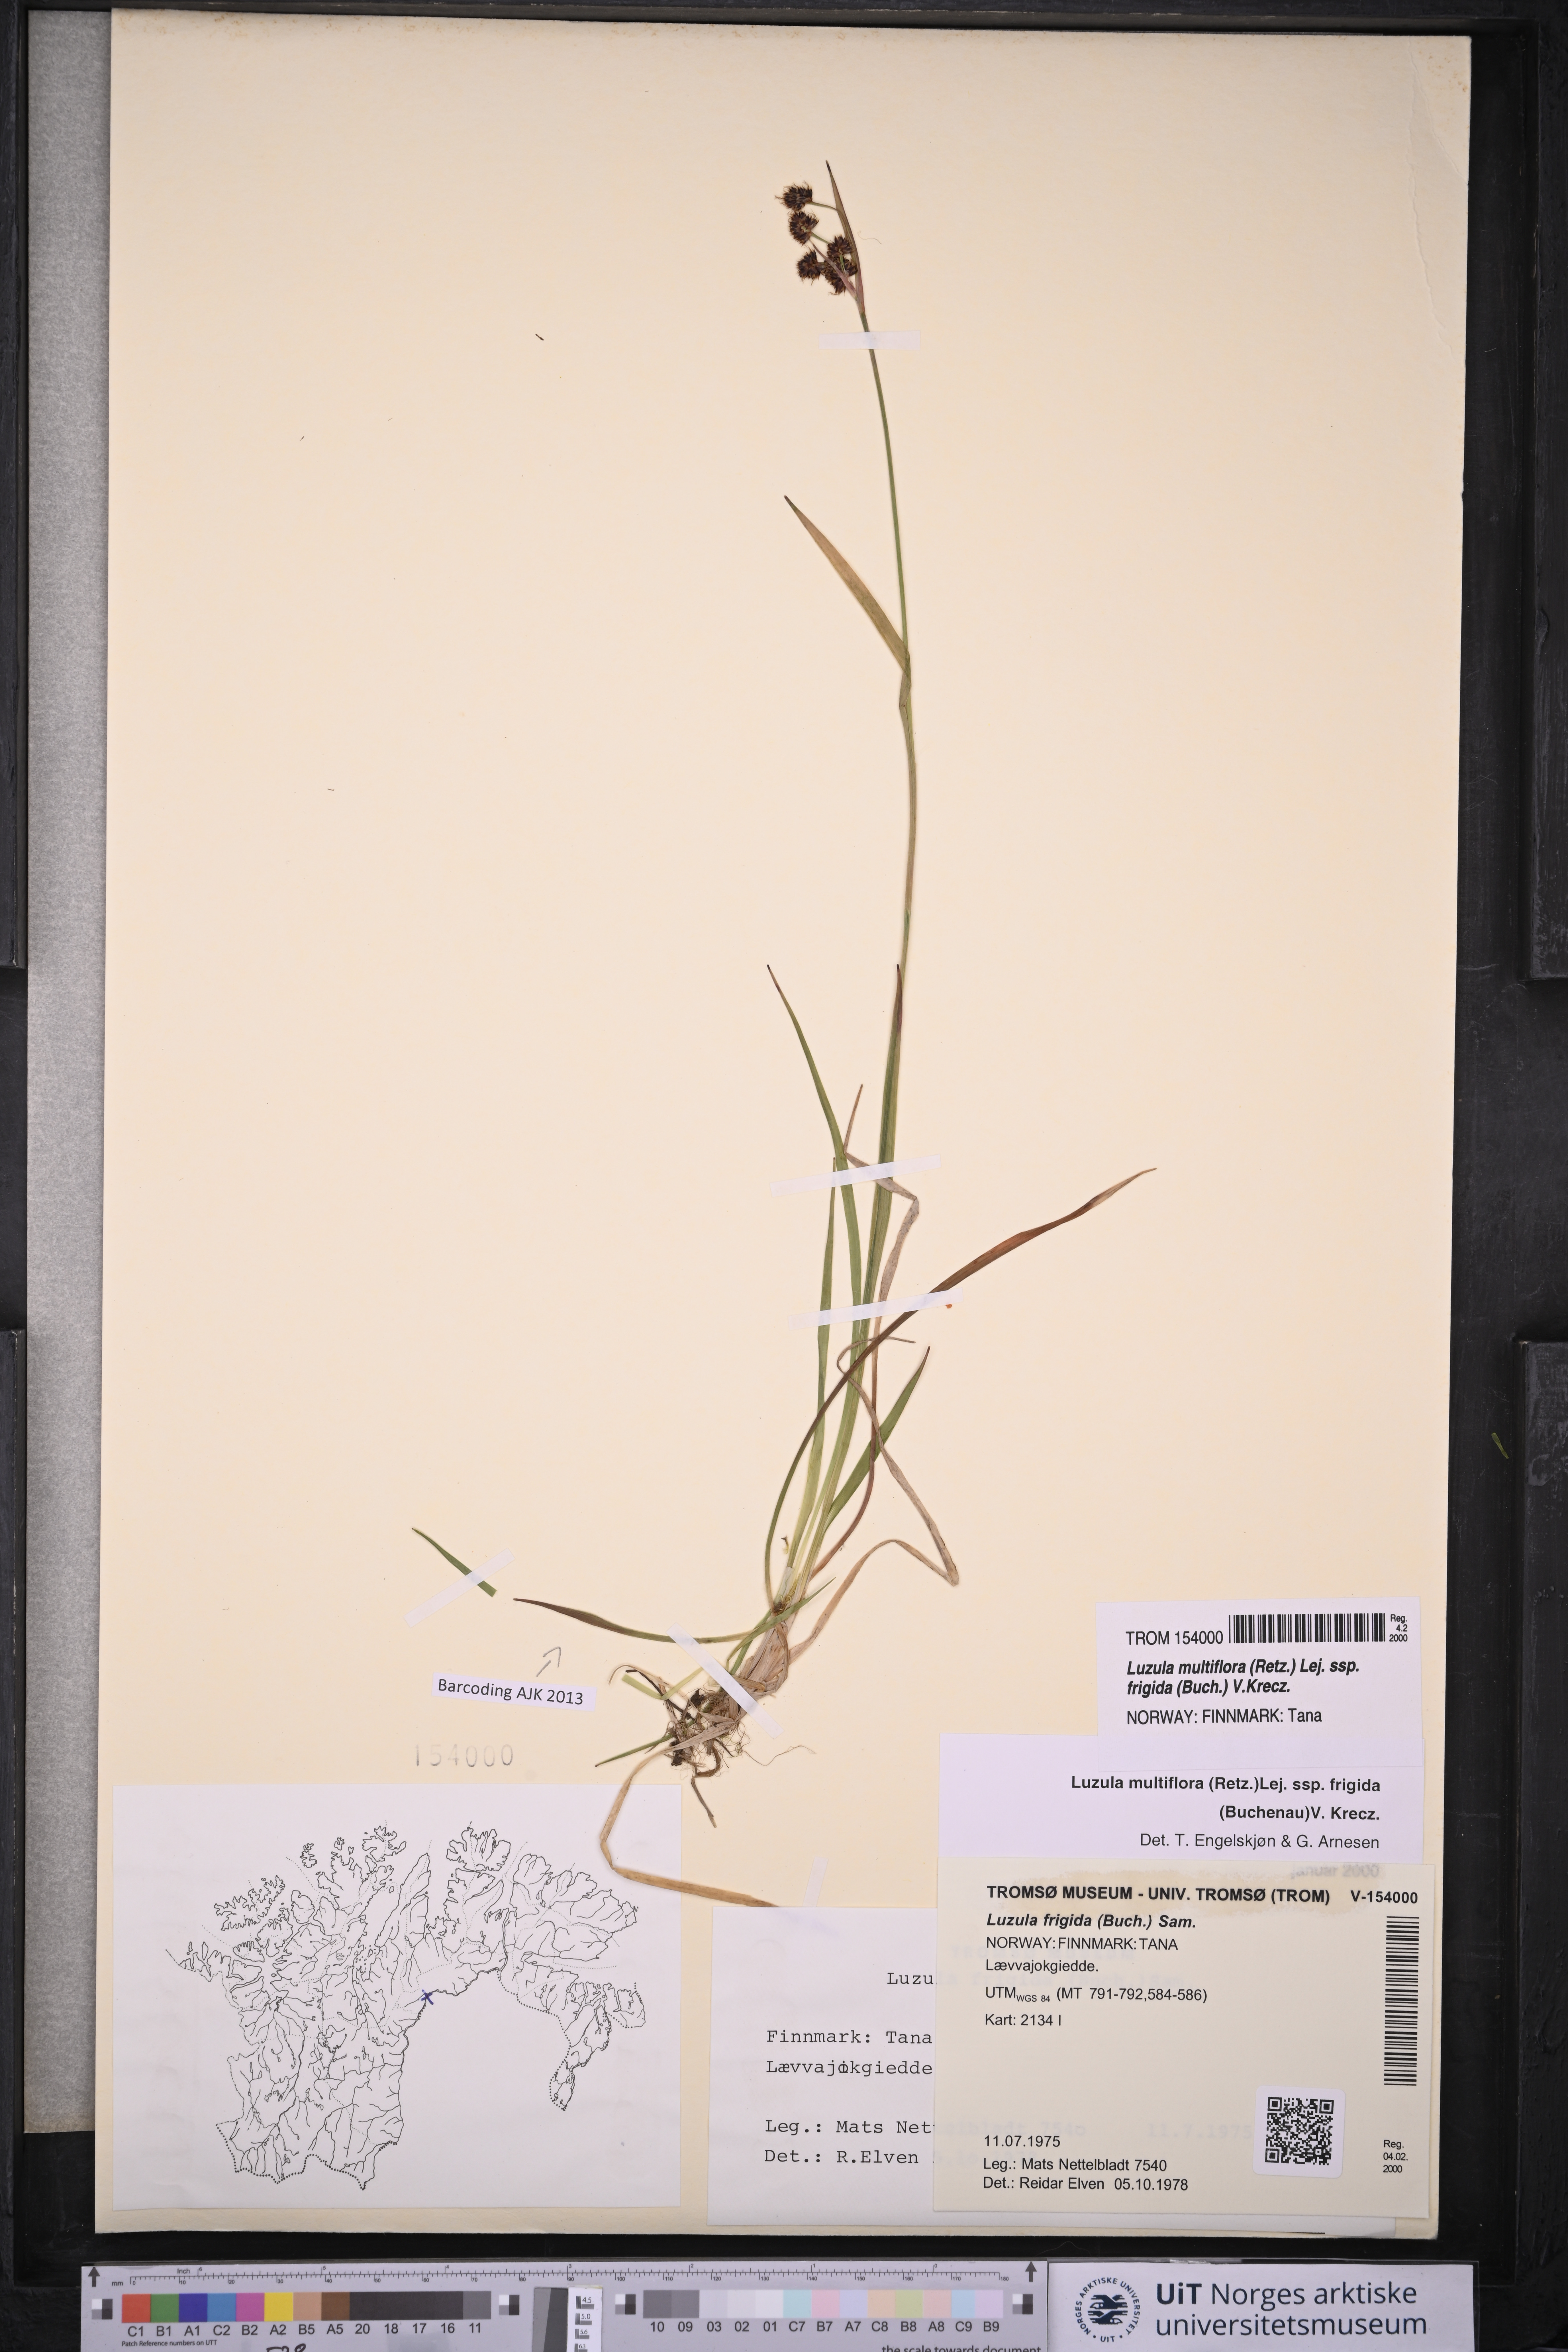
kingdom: Plantae
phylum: Tracheophyta
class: Liliopsida
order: Poales
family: Juncaceae
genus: Luzula
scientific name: Luzula multiflora
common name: Heath wood-rush
